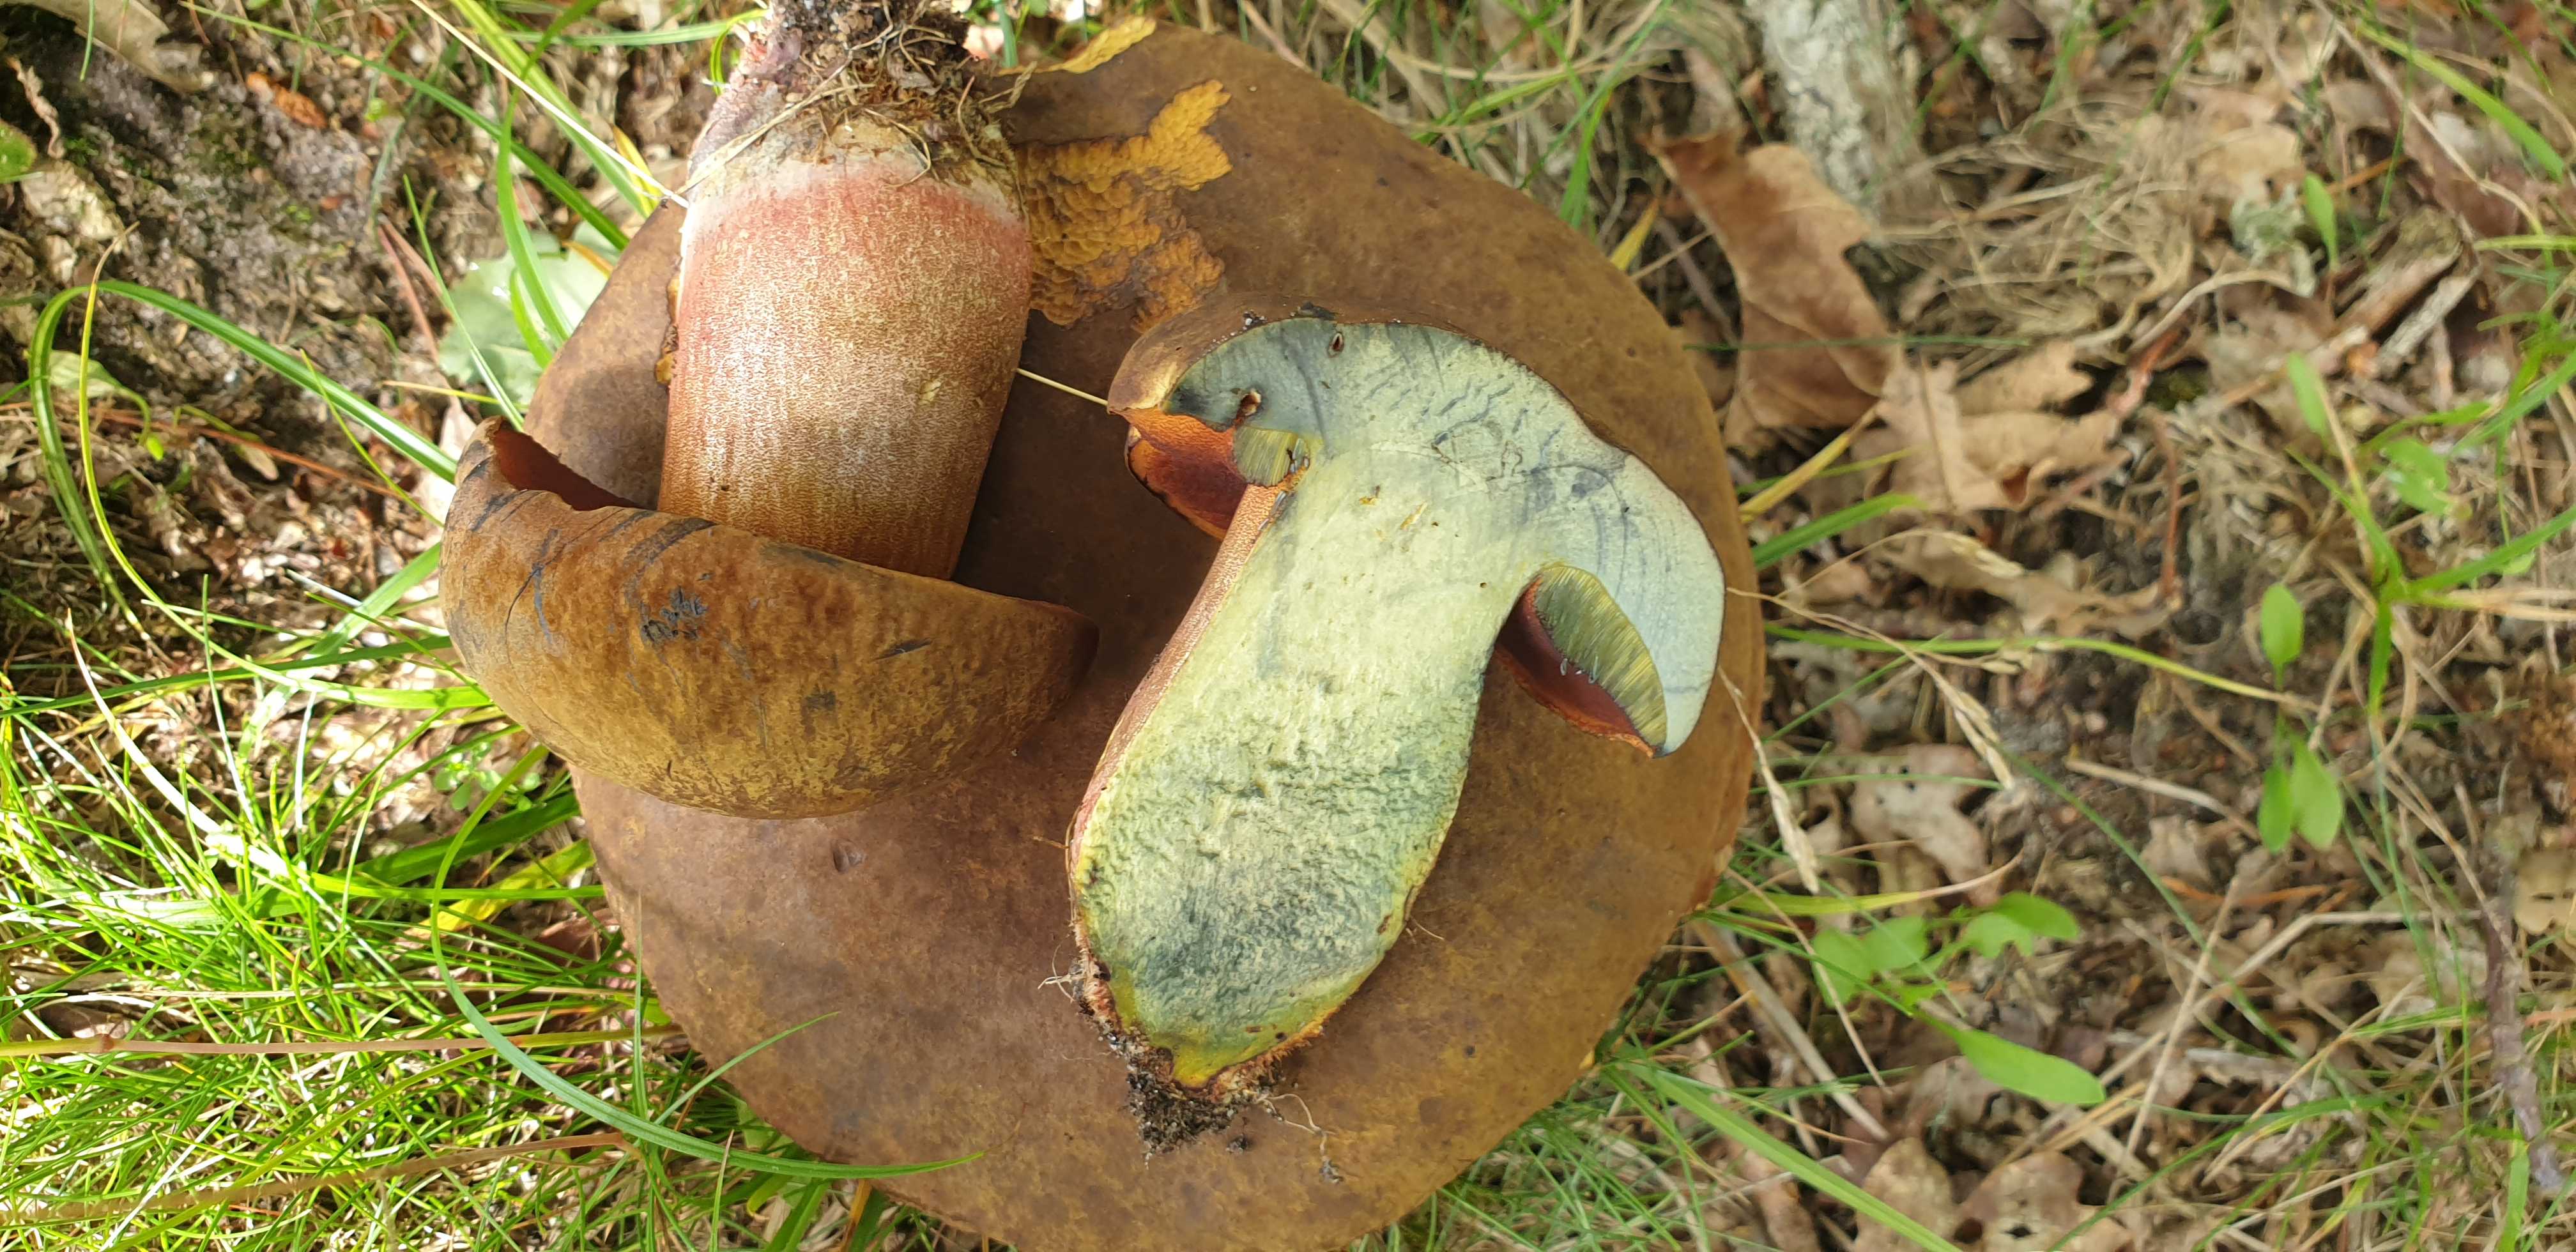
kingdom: Fungi
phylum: Basidiomycota
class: Agaricomycetes
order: Boletales
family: Boletaceae
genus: Neoboletus
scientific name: Neoboletus erythropus
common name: punktstokket indigorørhat
